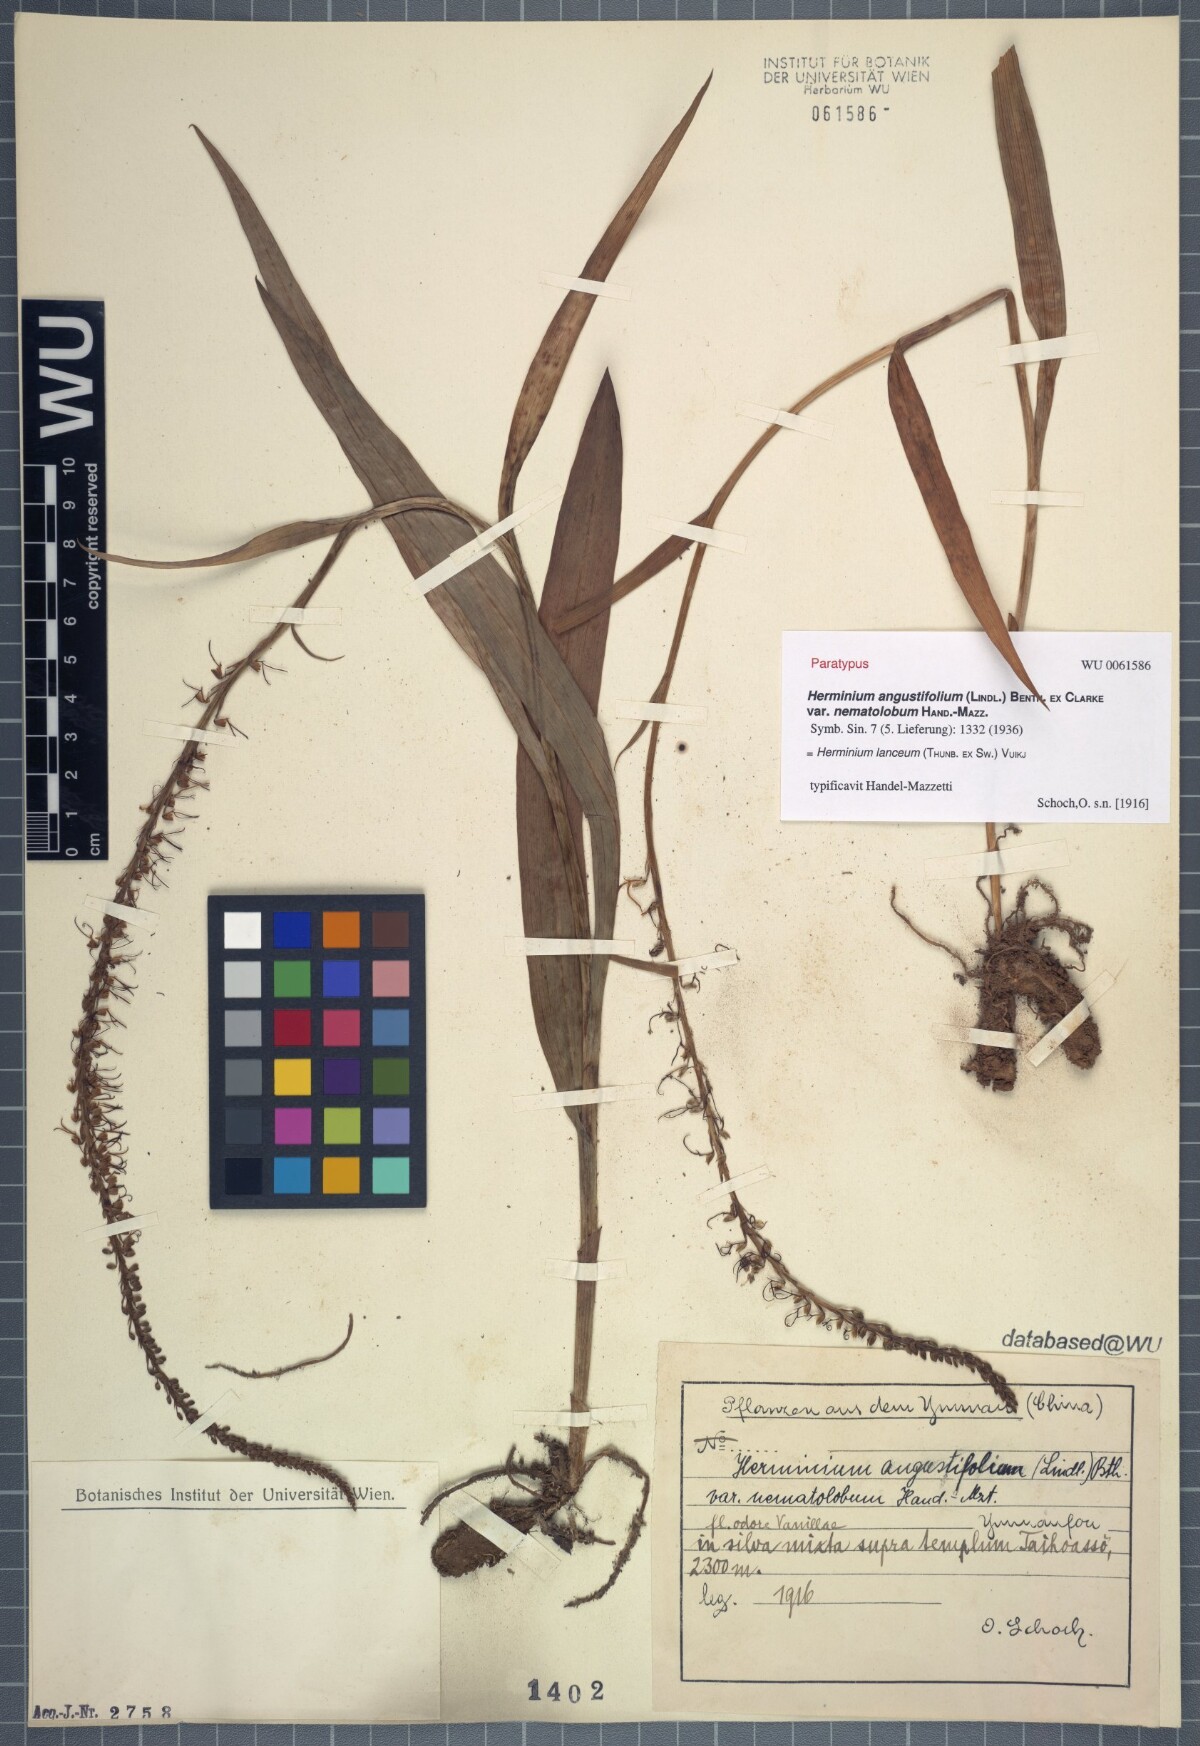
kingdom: Plantae
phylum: Tracheophyta
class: Liliopsida
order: Asparagales
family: Orchidaceae
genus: Herminium
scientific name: Herminium lanceum
